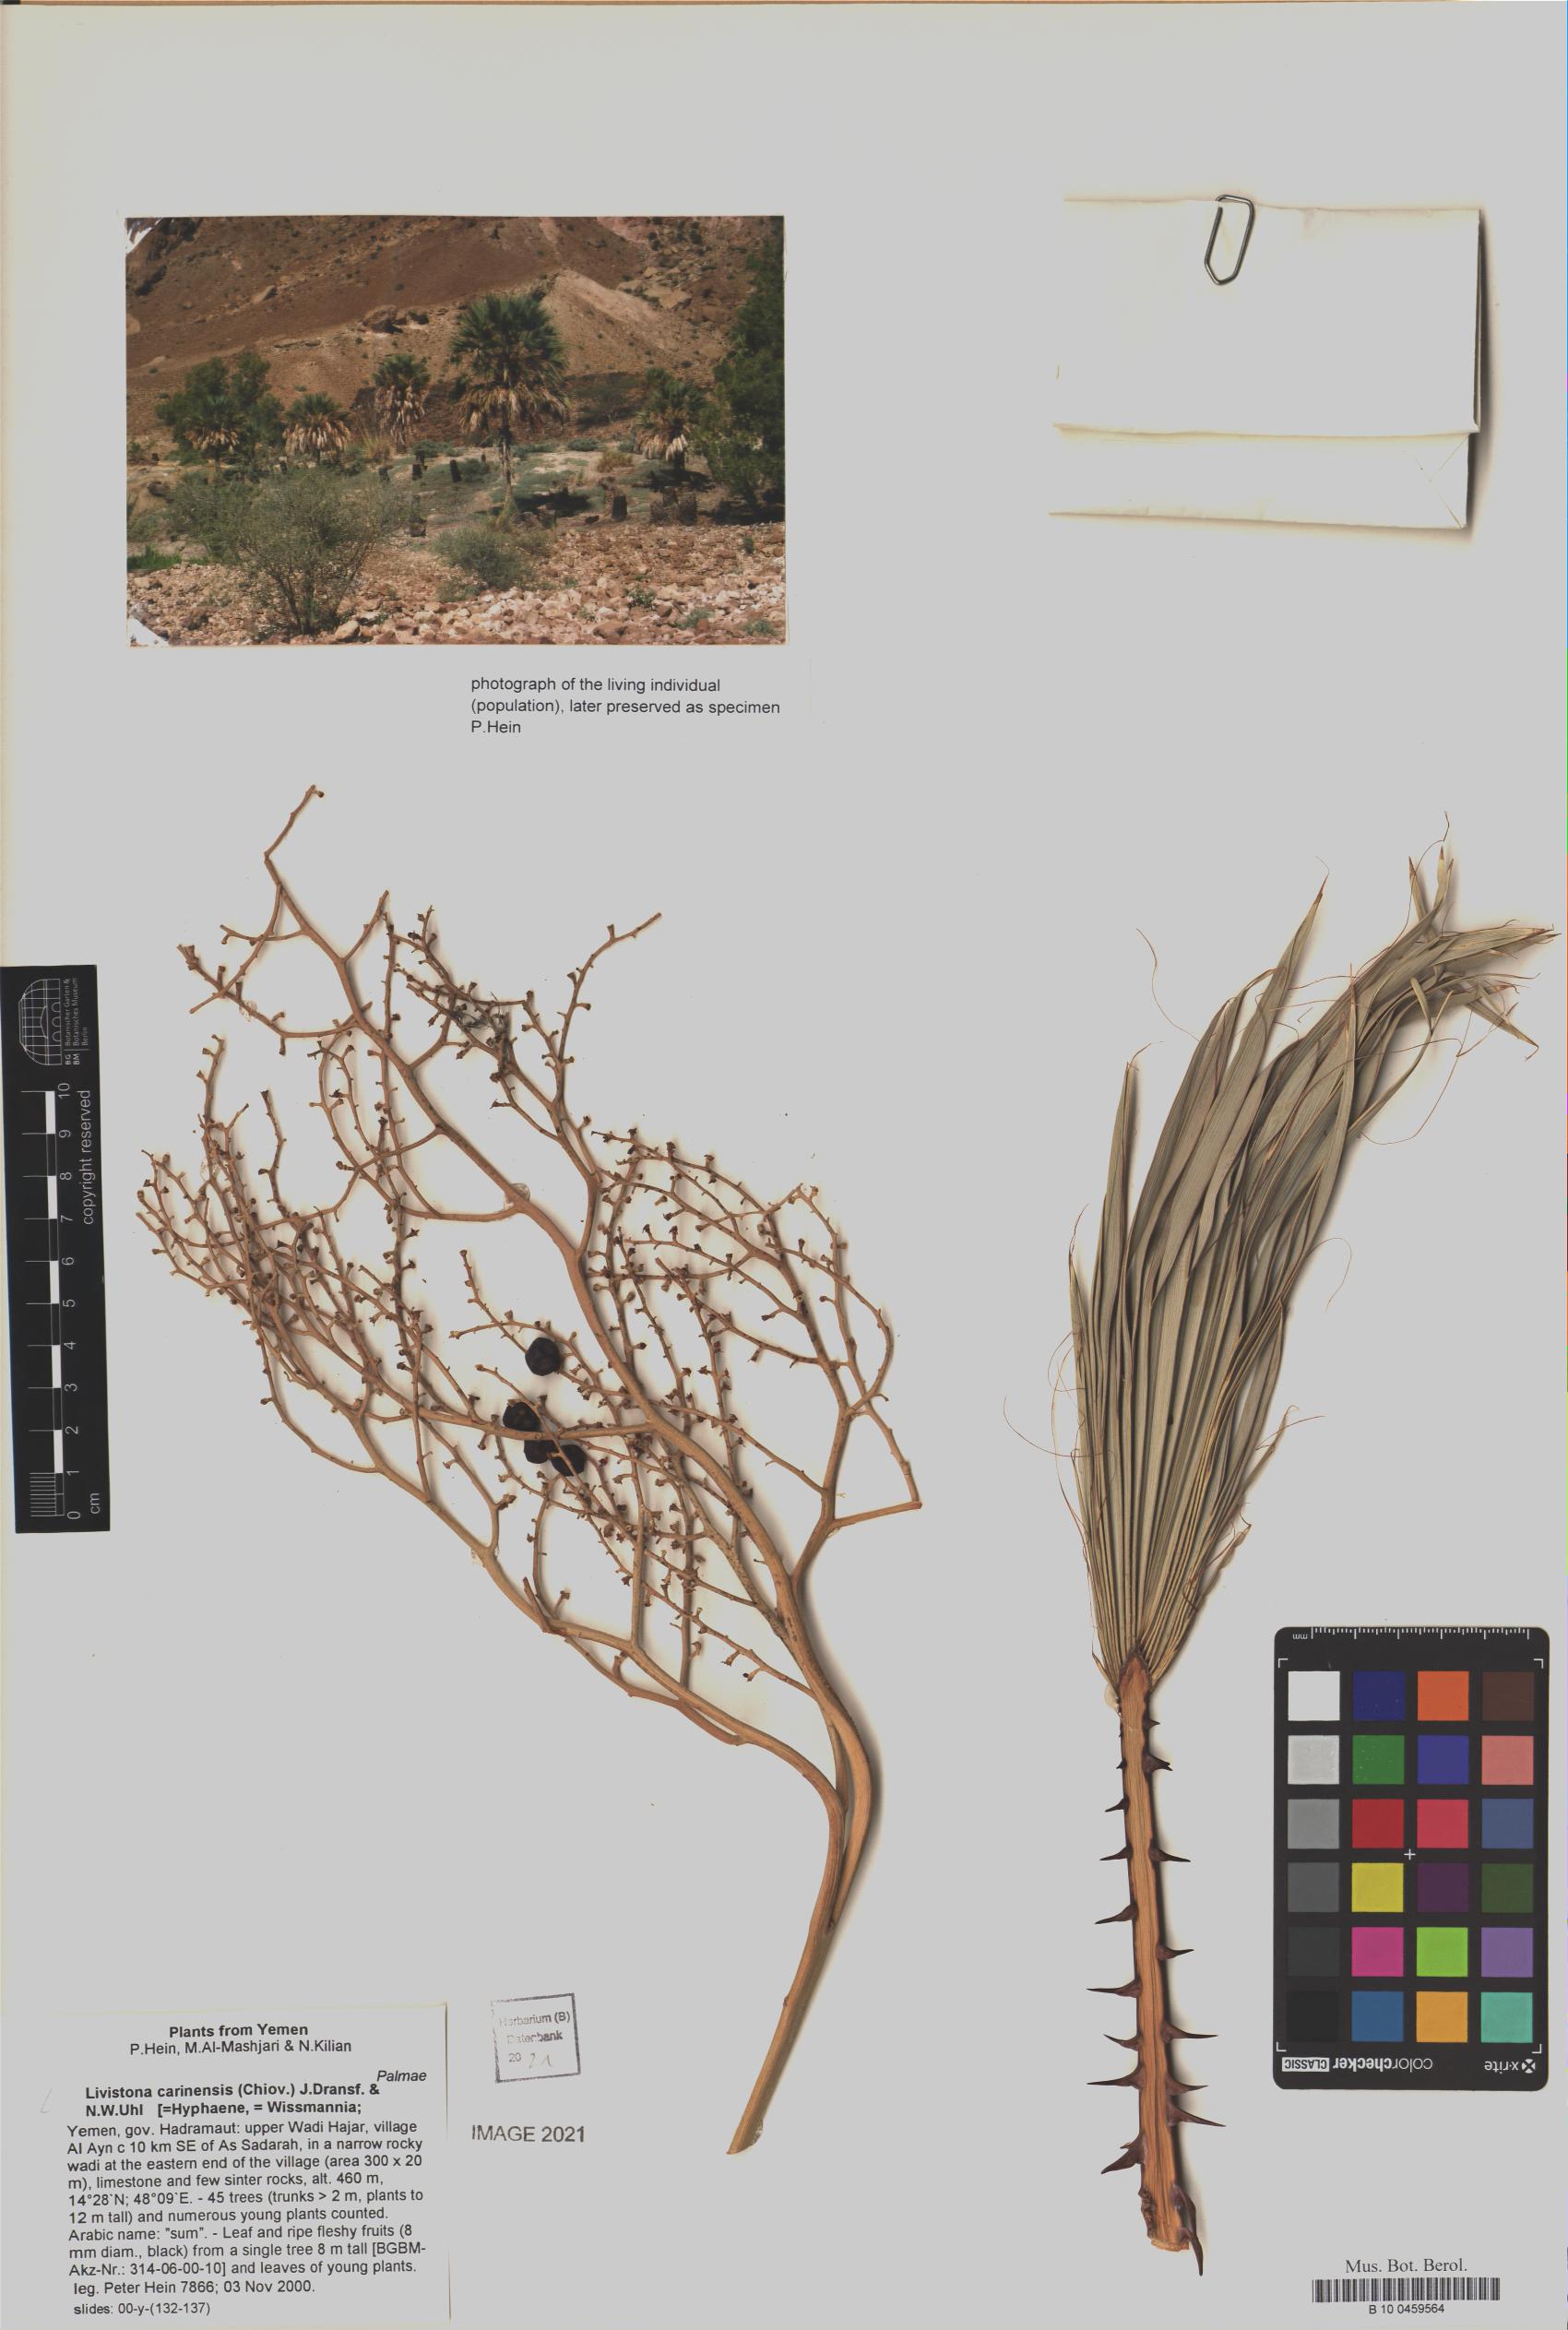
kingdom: Plantae
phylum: Tracheophyta
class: Liliopsida
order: Arecales
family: Arecaceae
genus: Livistona
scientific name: Livistona carinensis
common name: Bankoualé palm
